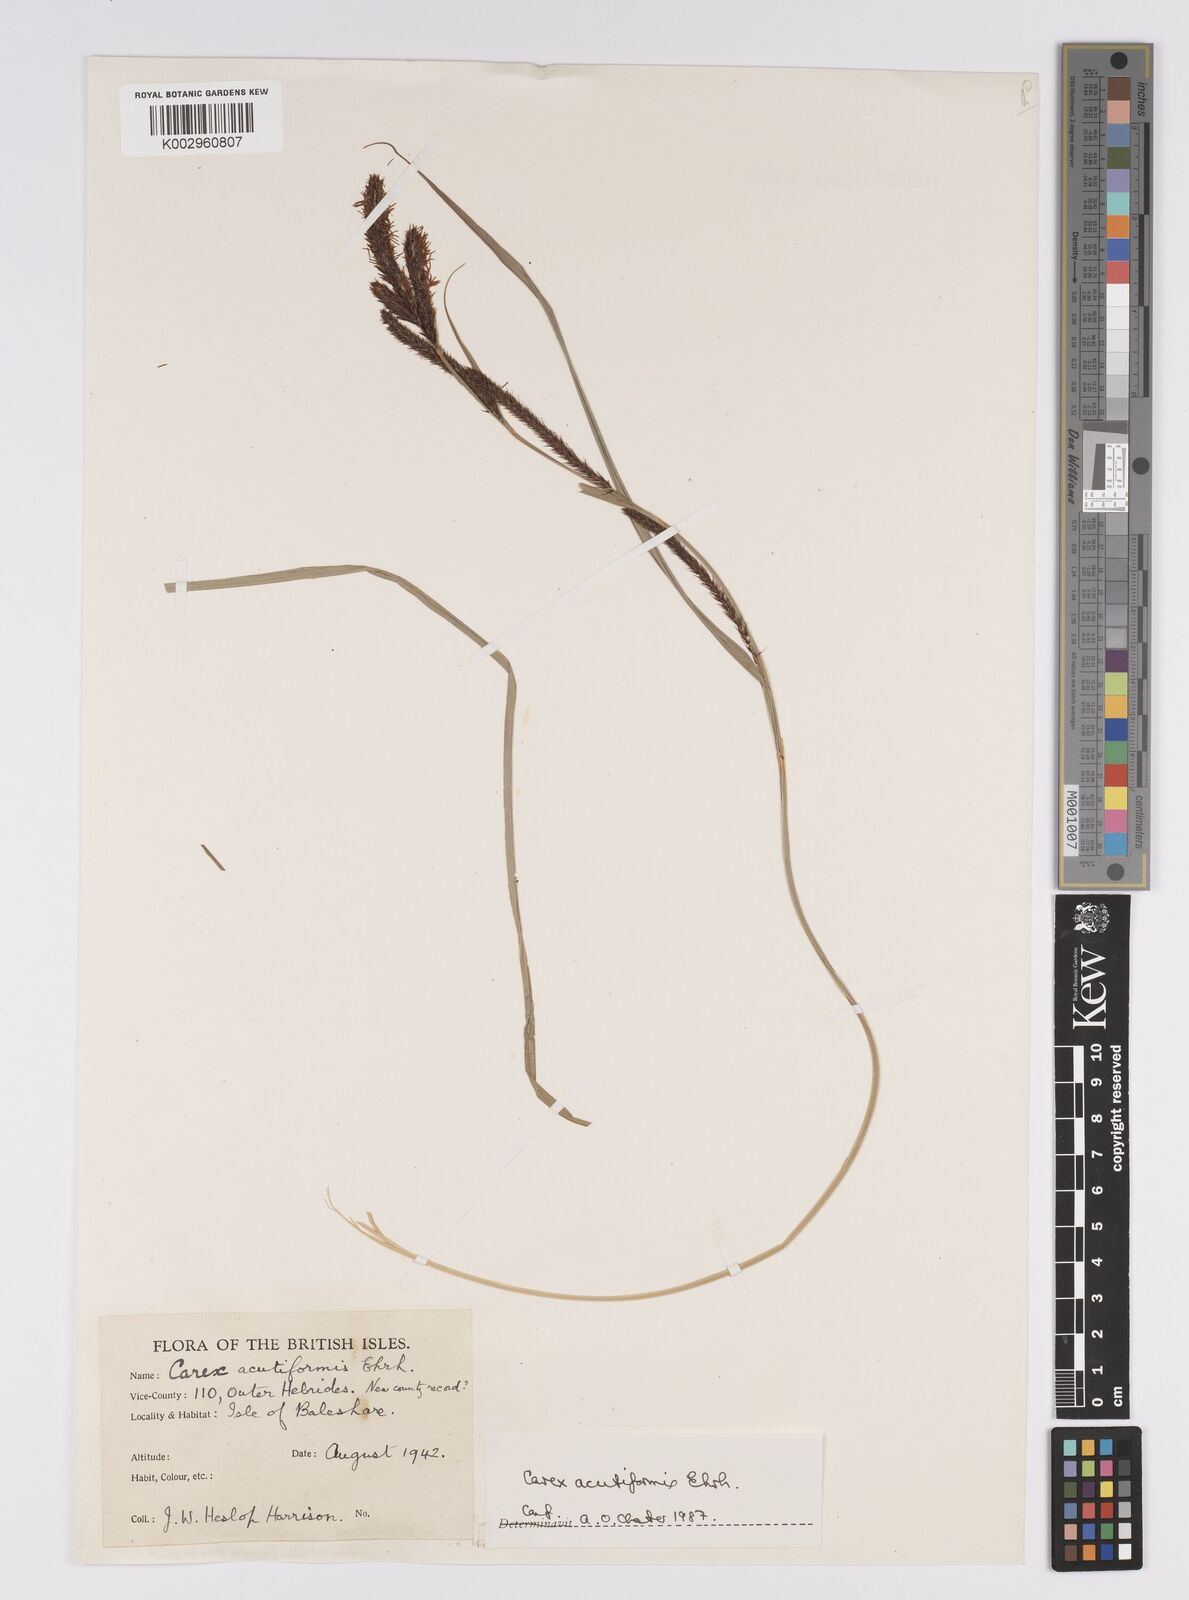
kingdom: Plantae
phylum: Tracheophyta
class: Liliopsida
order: Poales
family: Cyperaceae
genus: Carex
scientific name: Carex acutiformis
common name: Lesser pond-sedge
